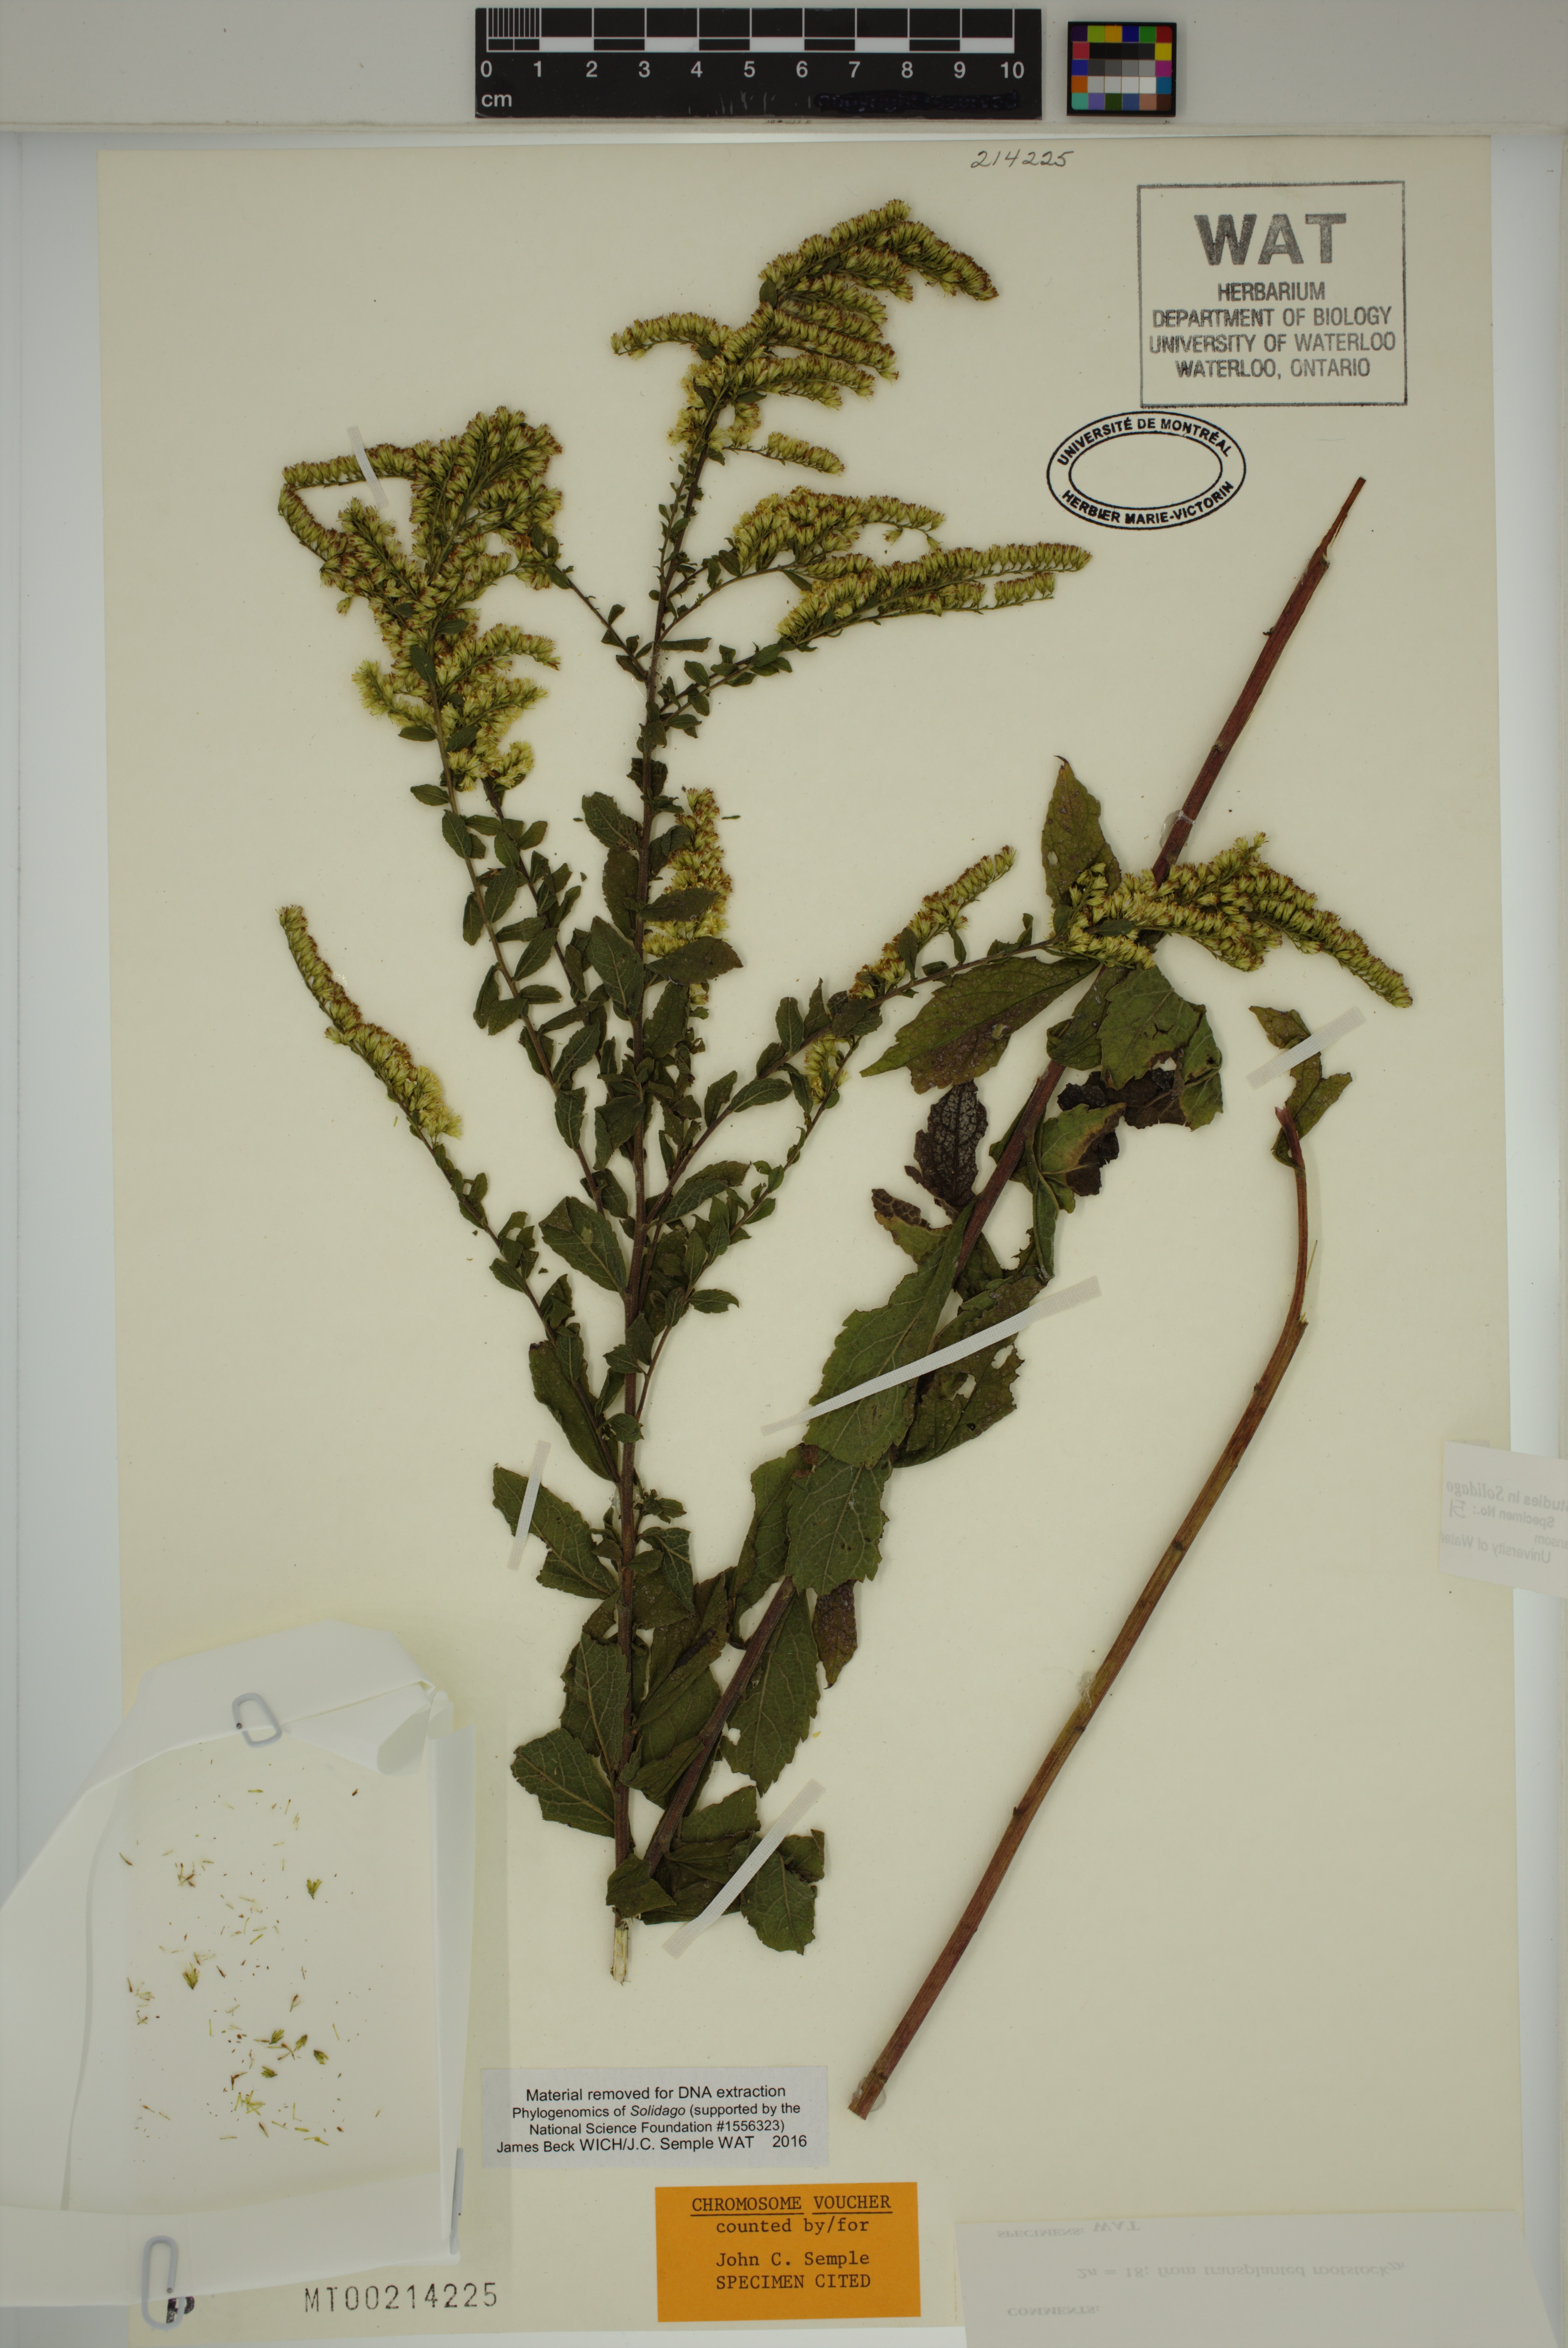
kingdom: Plantae
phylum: Tracheophyta
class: Magnoliopsida
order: Asterales
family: Asteraceae
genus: Solidago
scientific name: Solidago rugosa
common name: Rough-stemmed goldenrod
